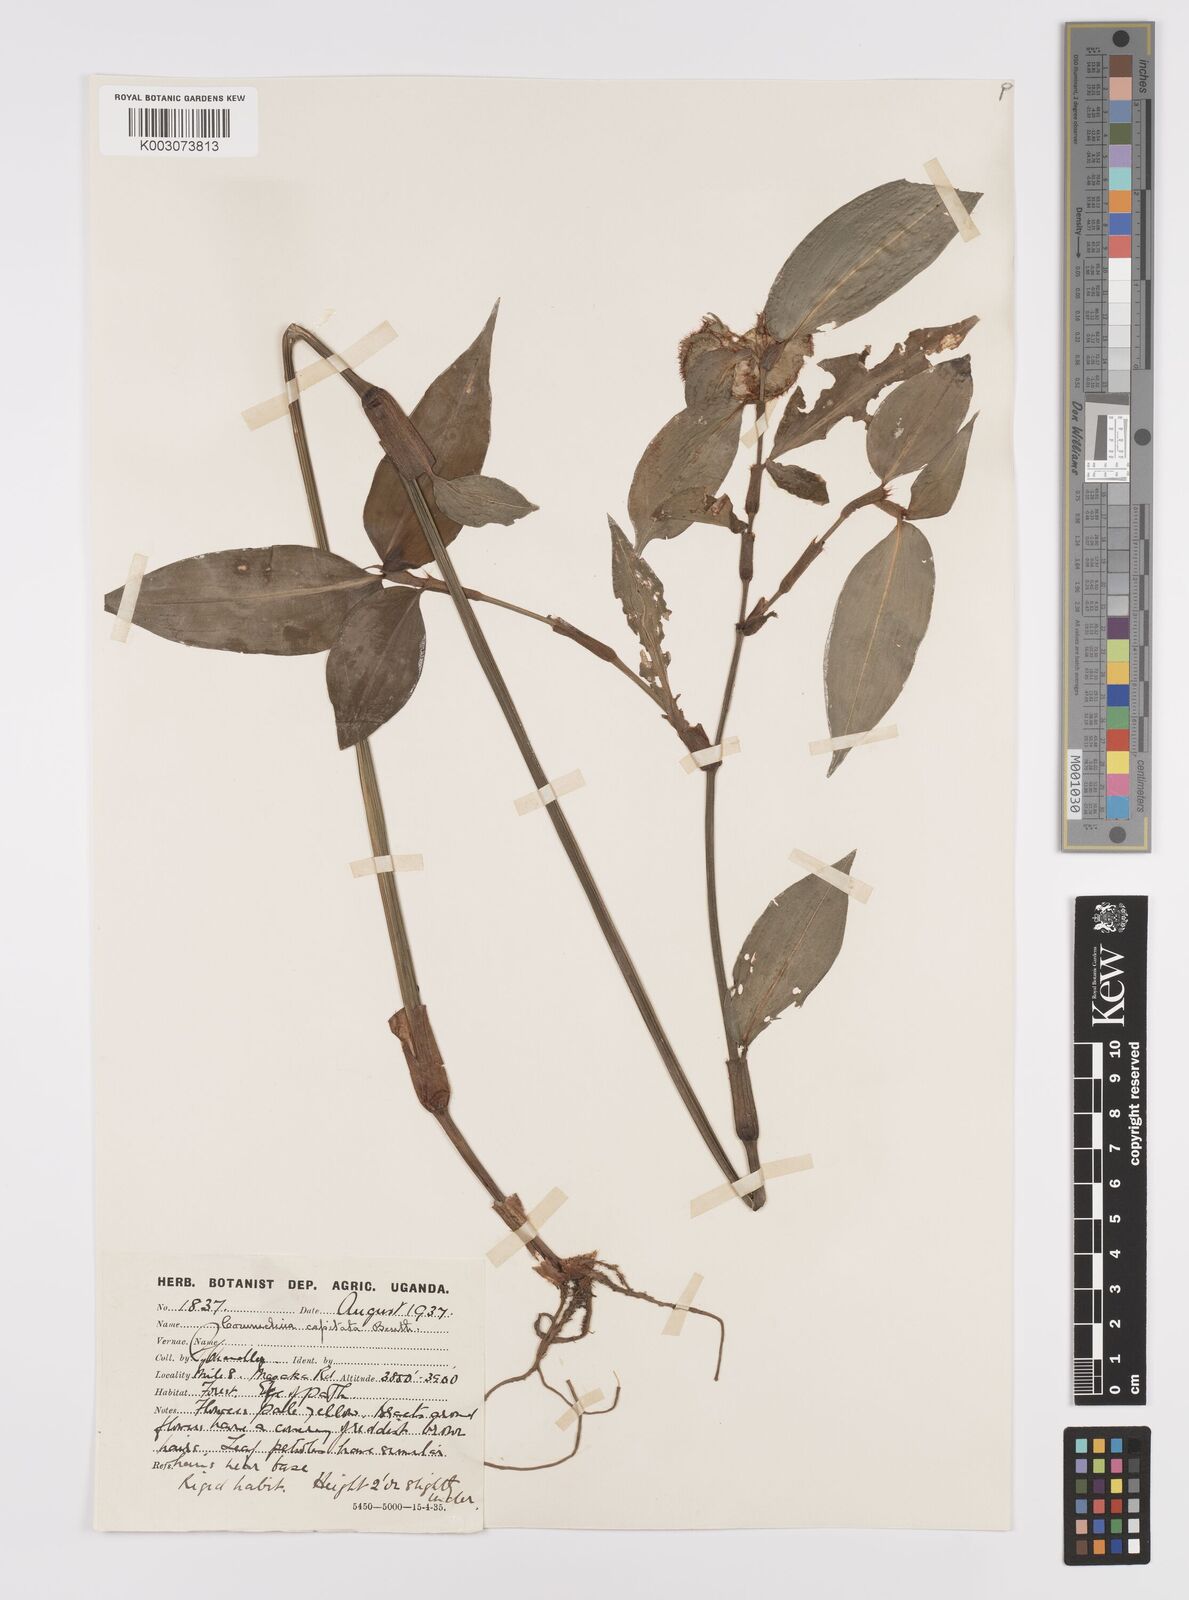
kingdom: Plantae
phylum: Tracheophyta
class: Liliopsida
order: Commelinales
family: Commelinaceae
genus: Commelina
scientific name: Commelina capitata
